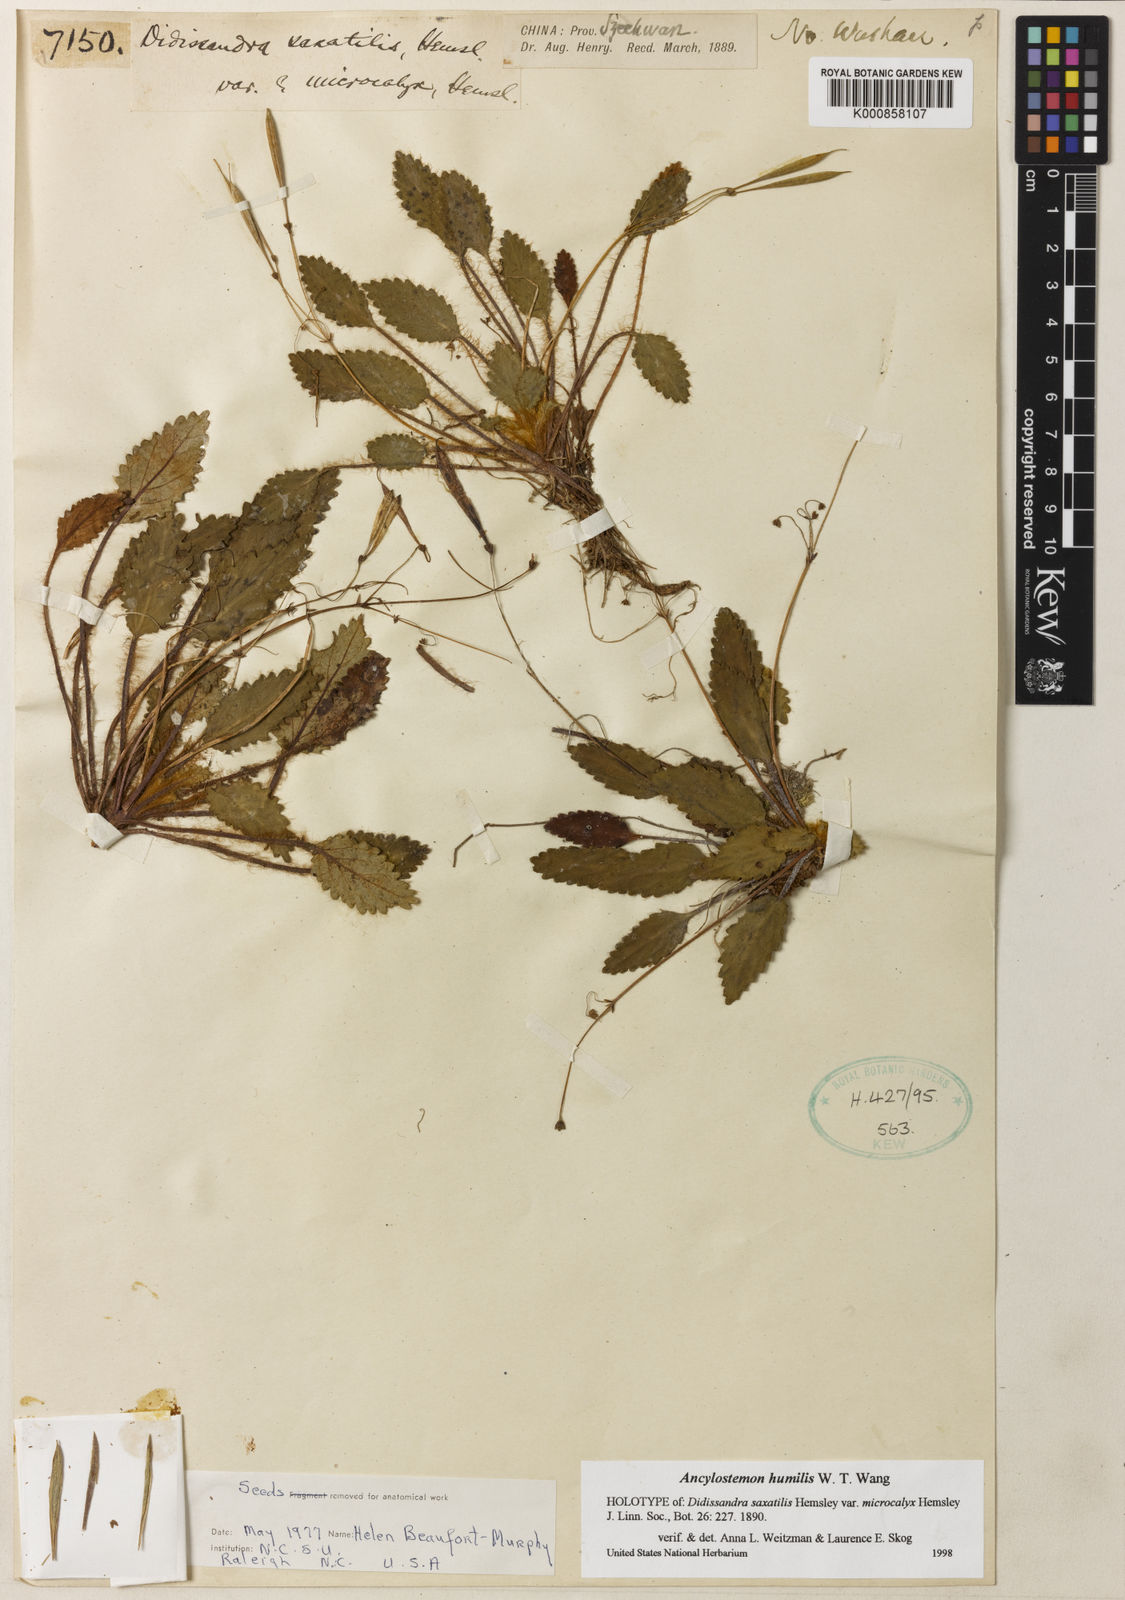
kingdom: Plantae
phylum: Tracheophyta
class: Magnoliopsida
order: Lamiales
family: Gesneriaceae
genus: Oreocharis
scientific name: Oreocharis
